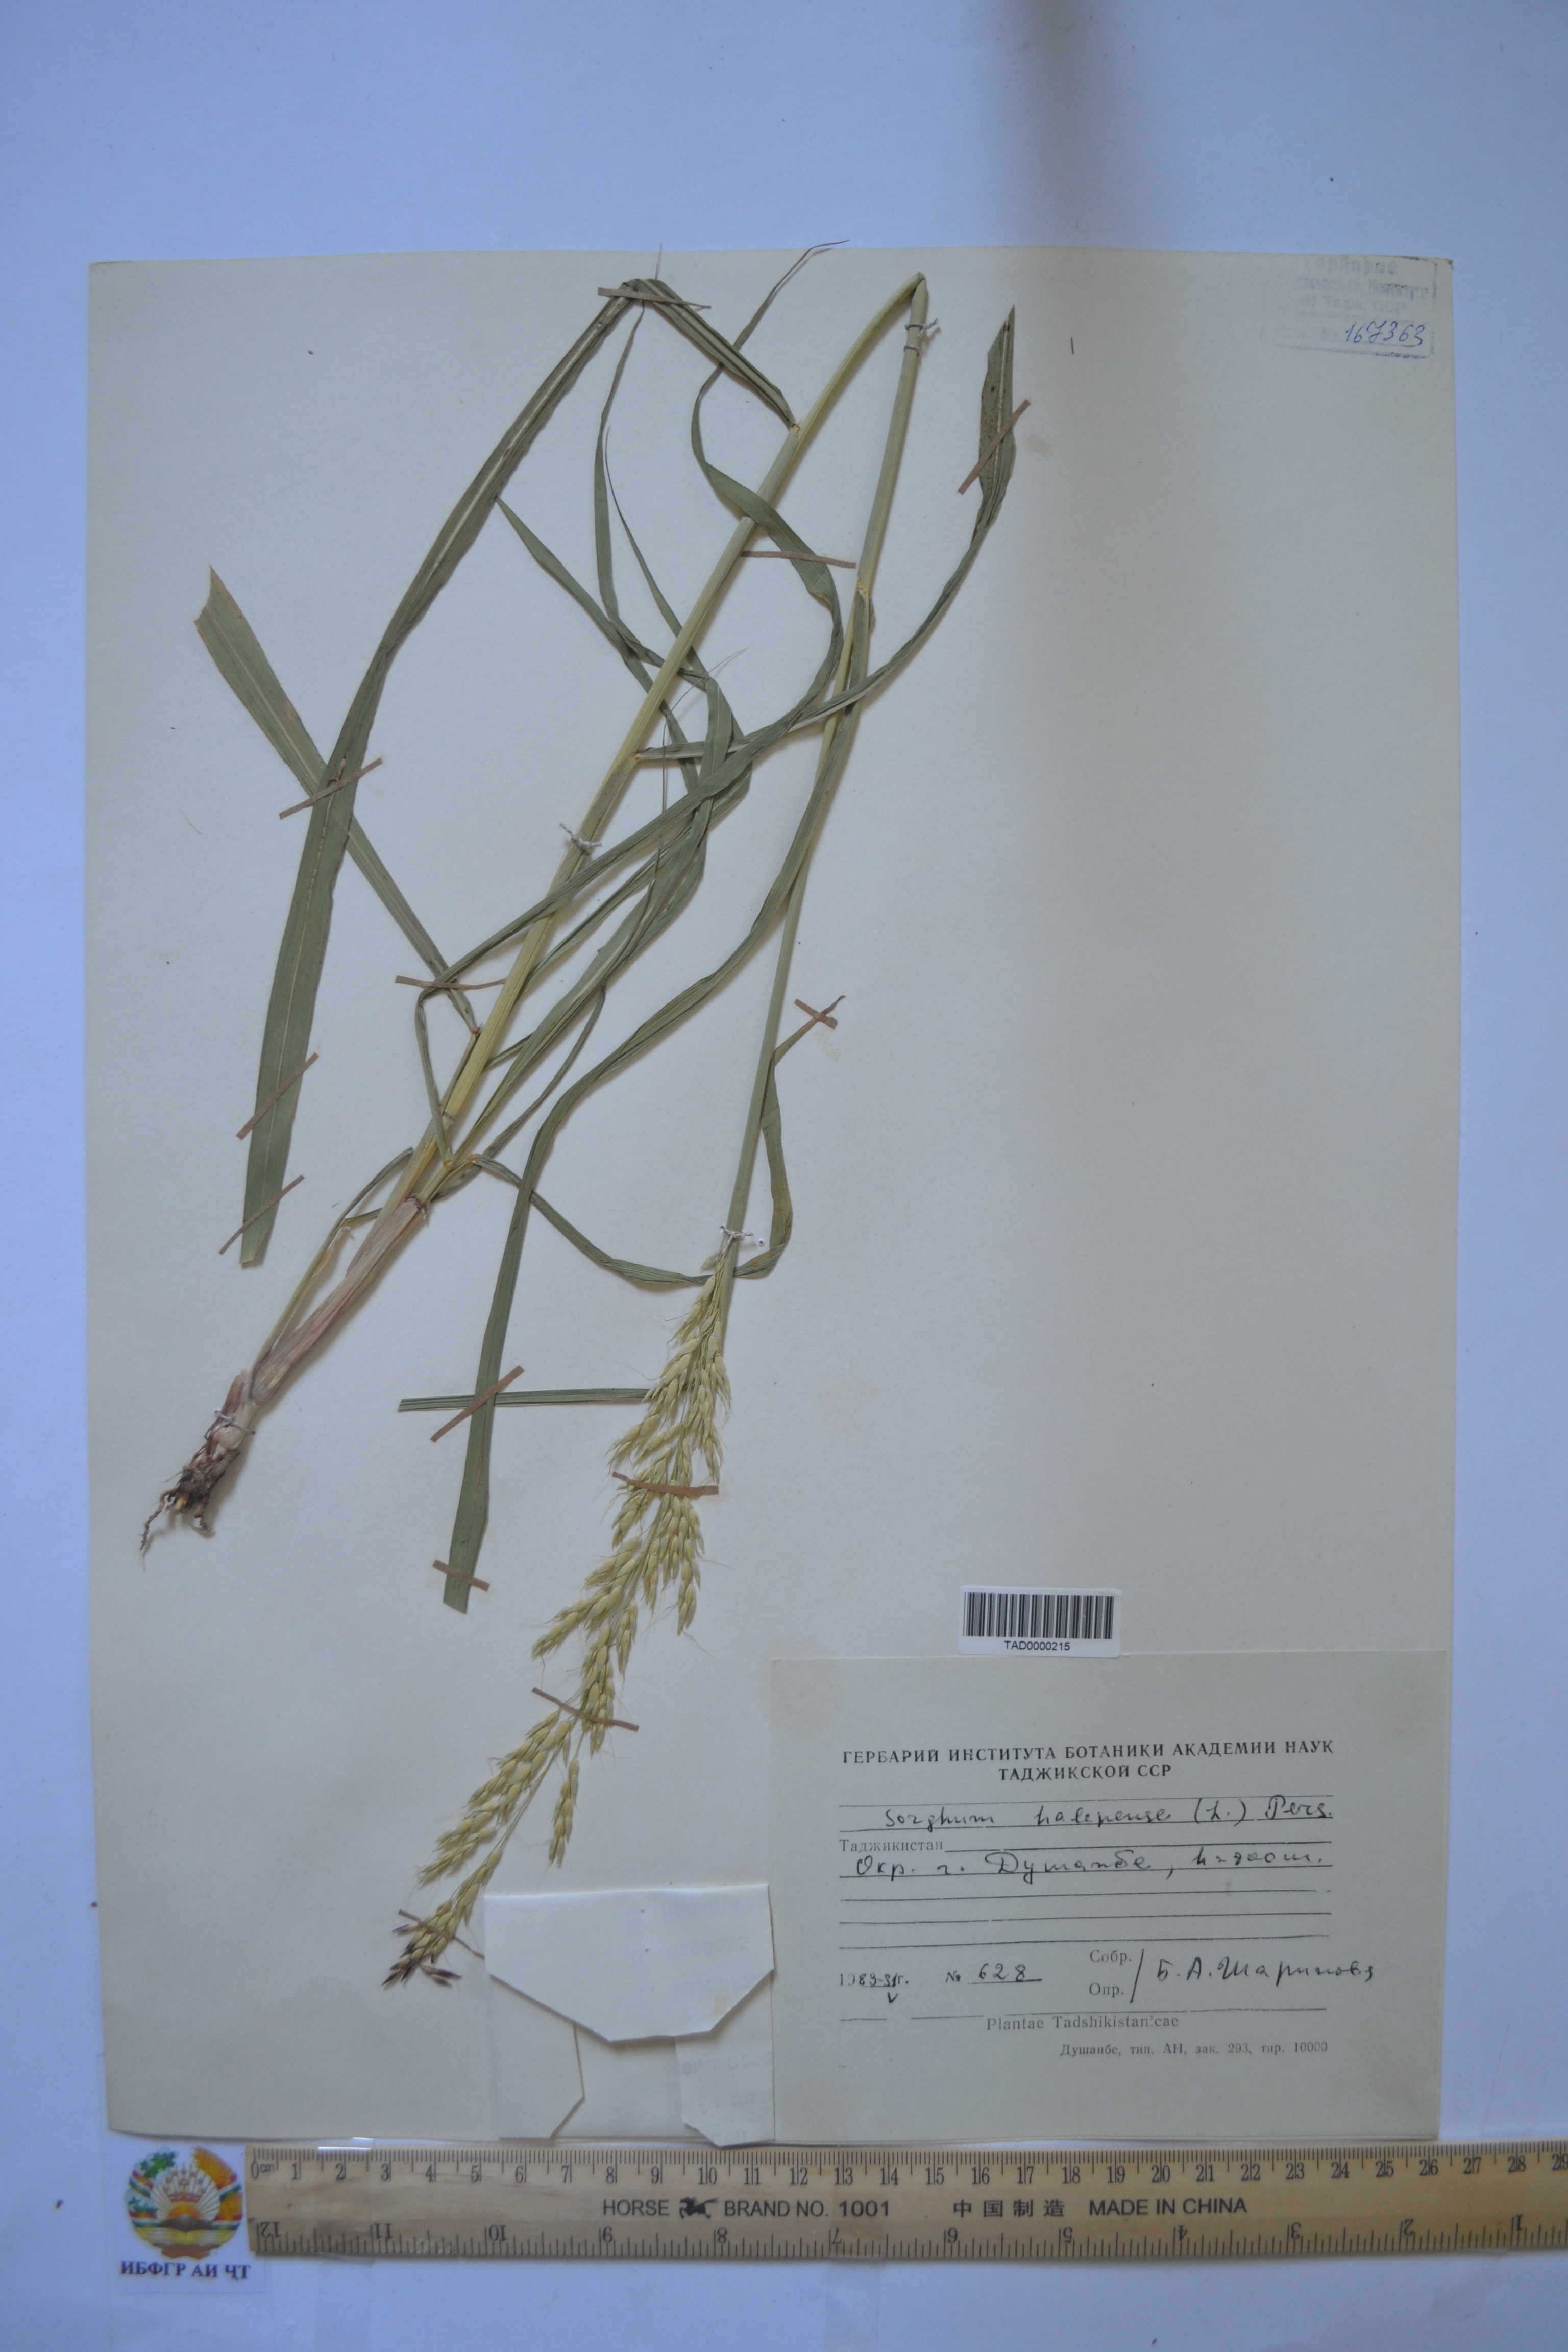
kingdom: Plantae
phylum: Tracheophyta
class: Liliopsida
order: Poales
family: Poaceae
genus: Sorghum
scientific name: Sorghum halepense
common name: Johnson-grass
